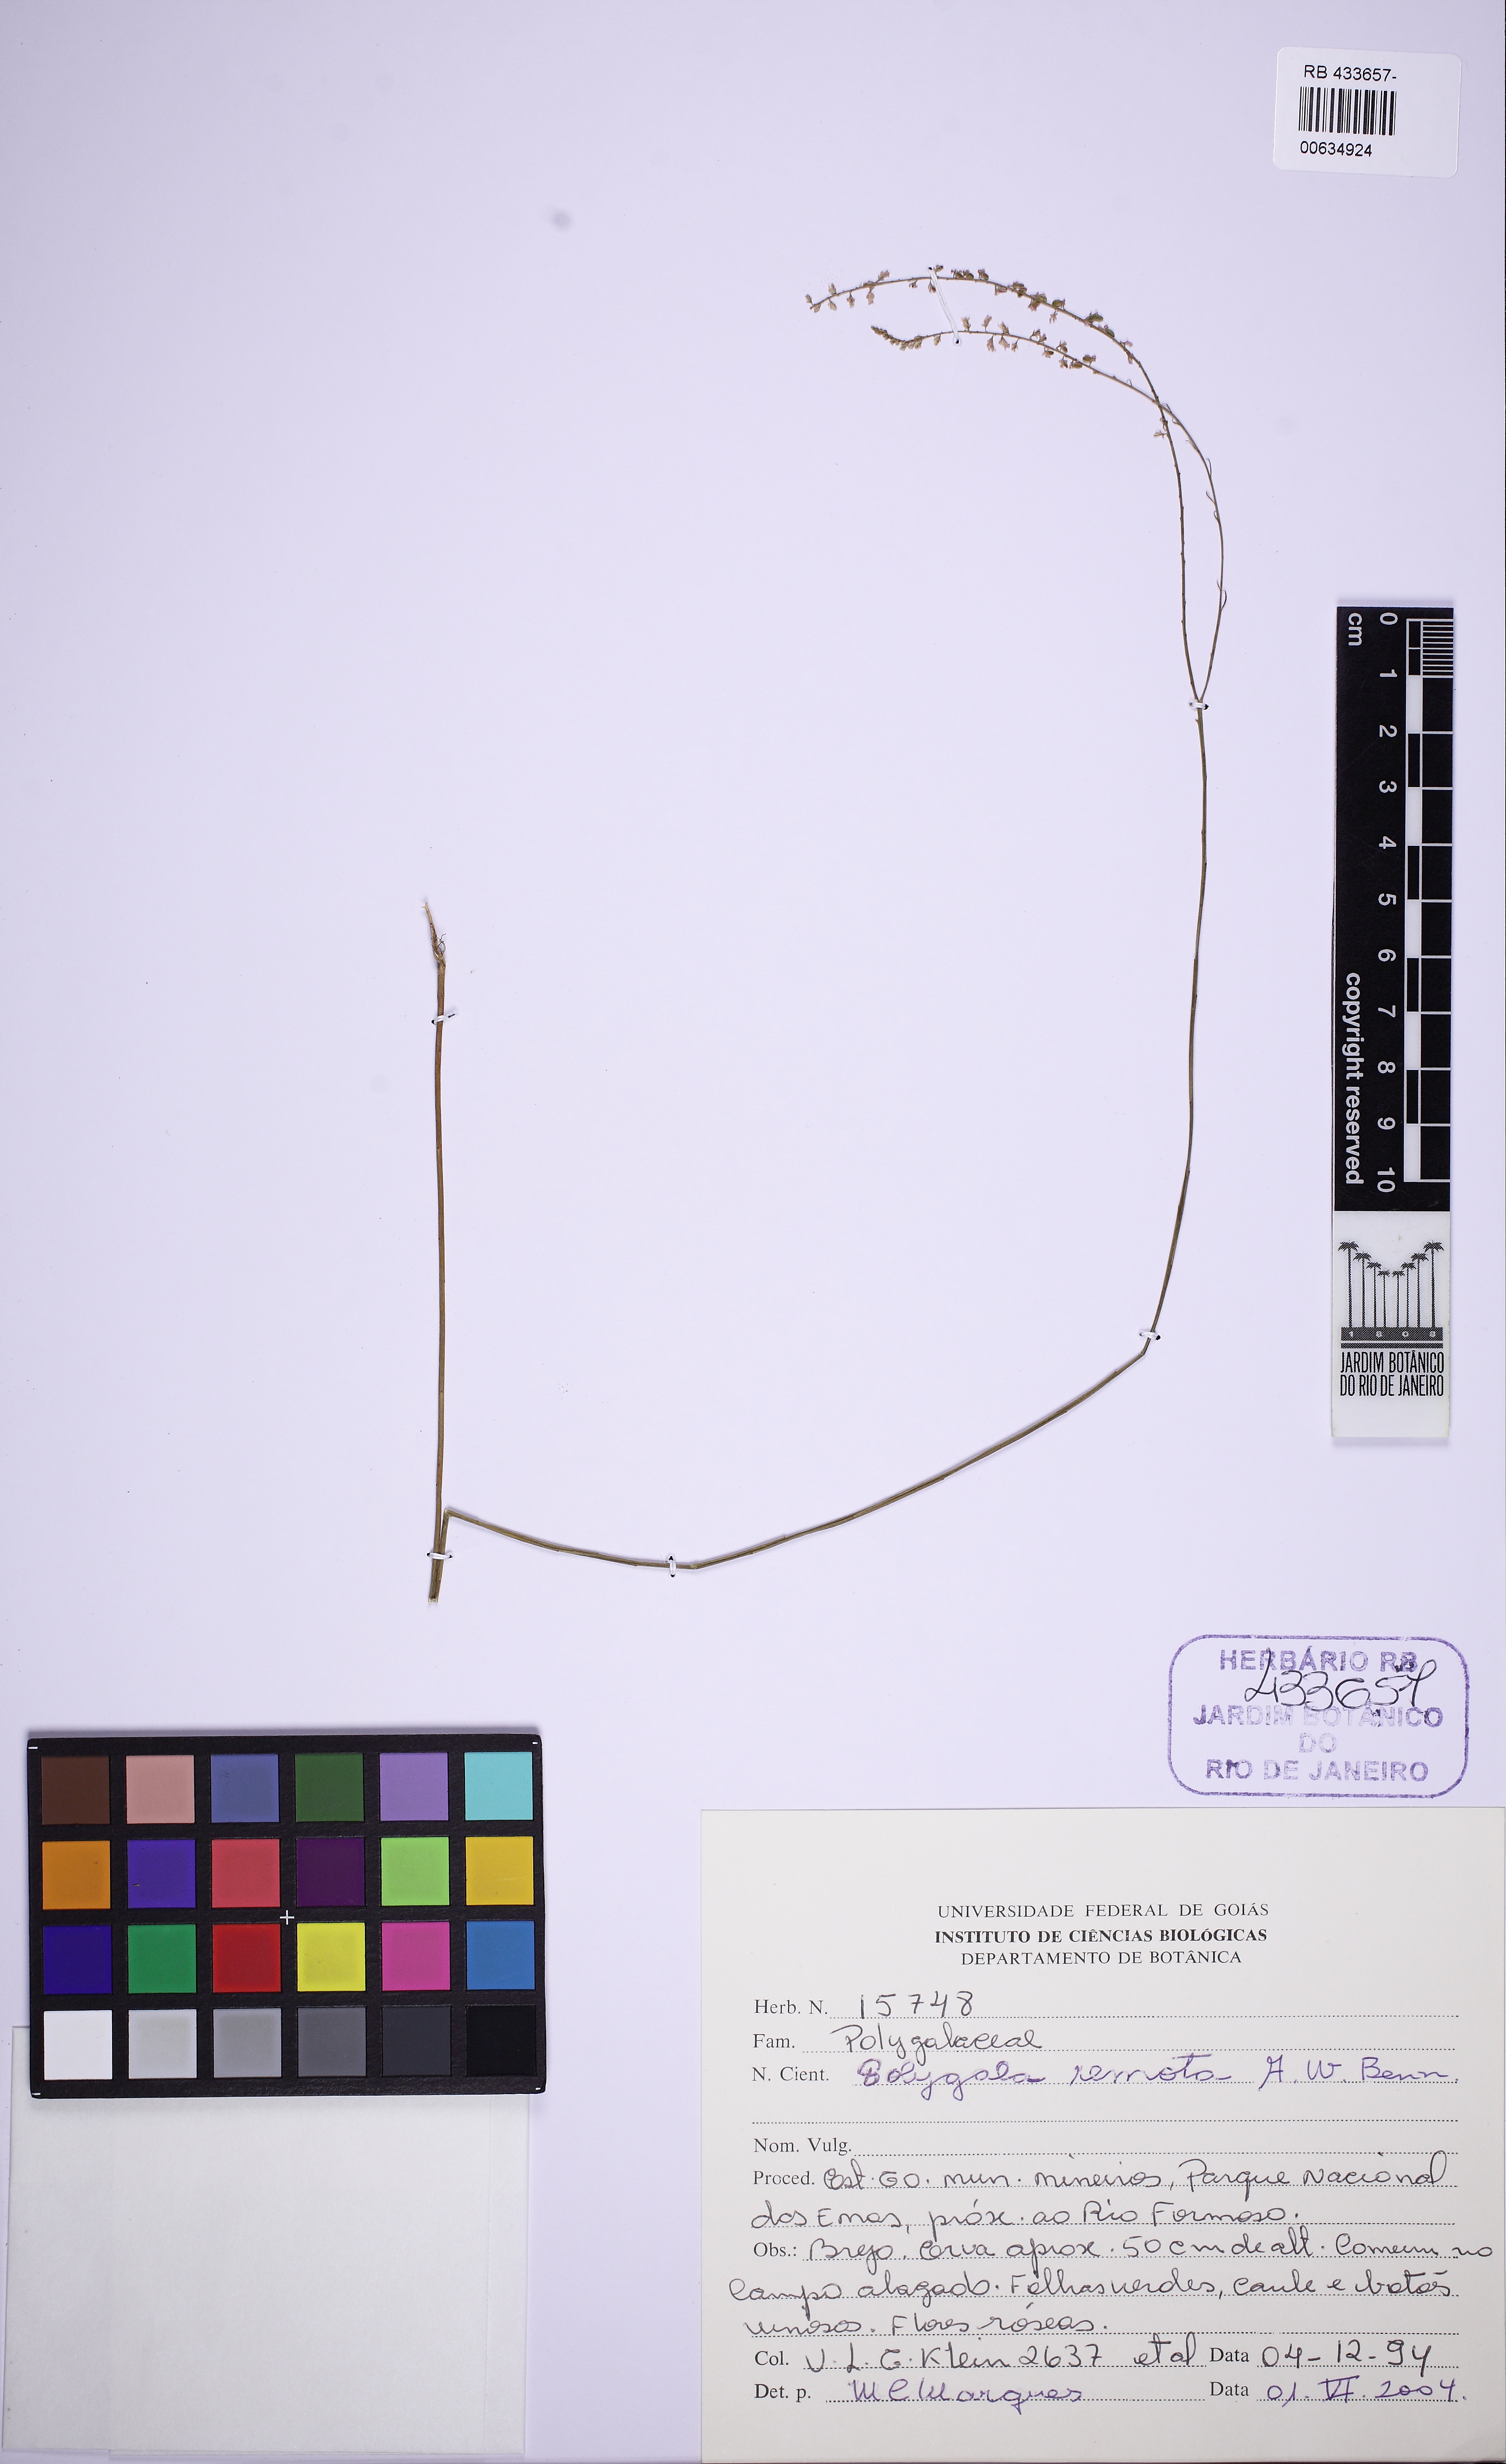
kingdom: Plantae
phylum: Tracheophyta
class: Magnoliopsida
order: Fabales
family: Polygalaceae
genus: Polygala
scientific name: Polygala gracilis
